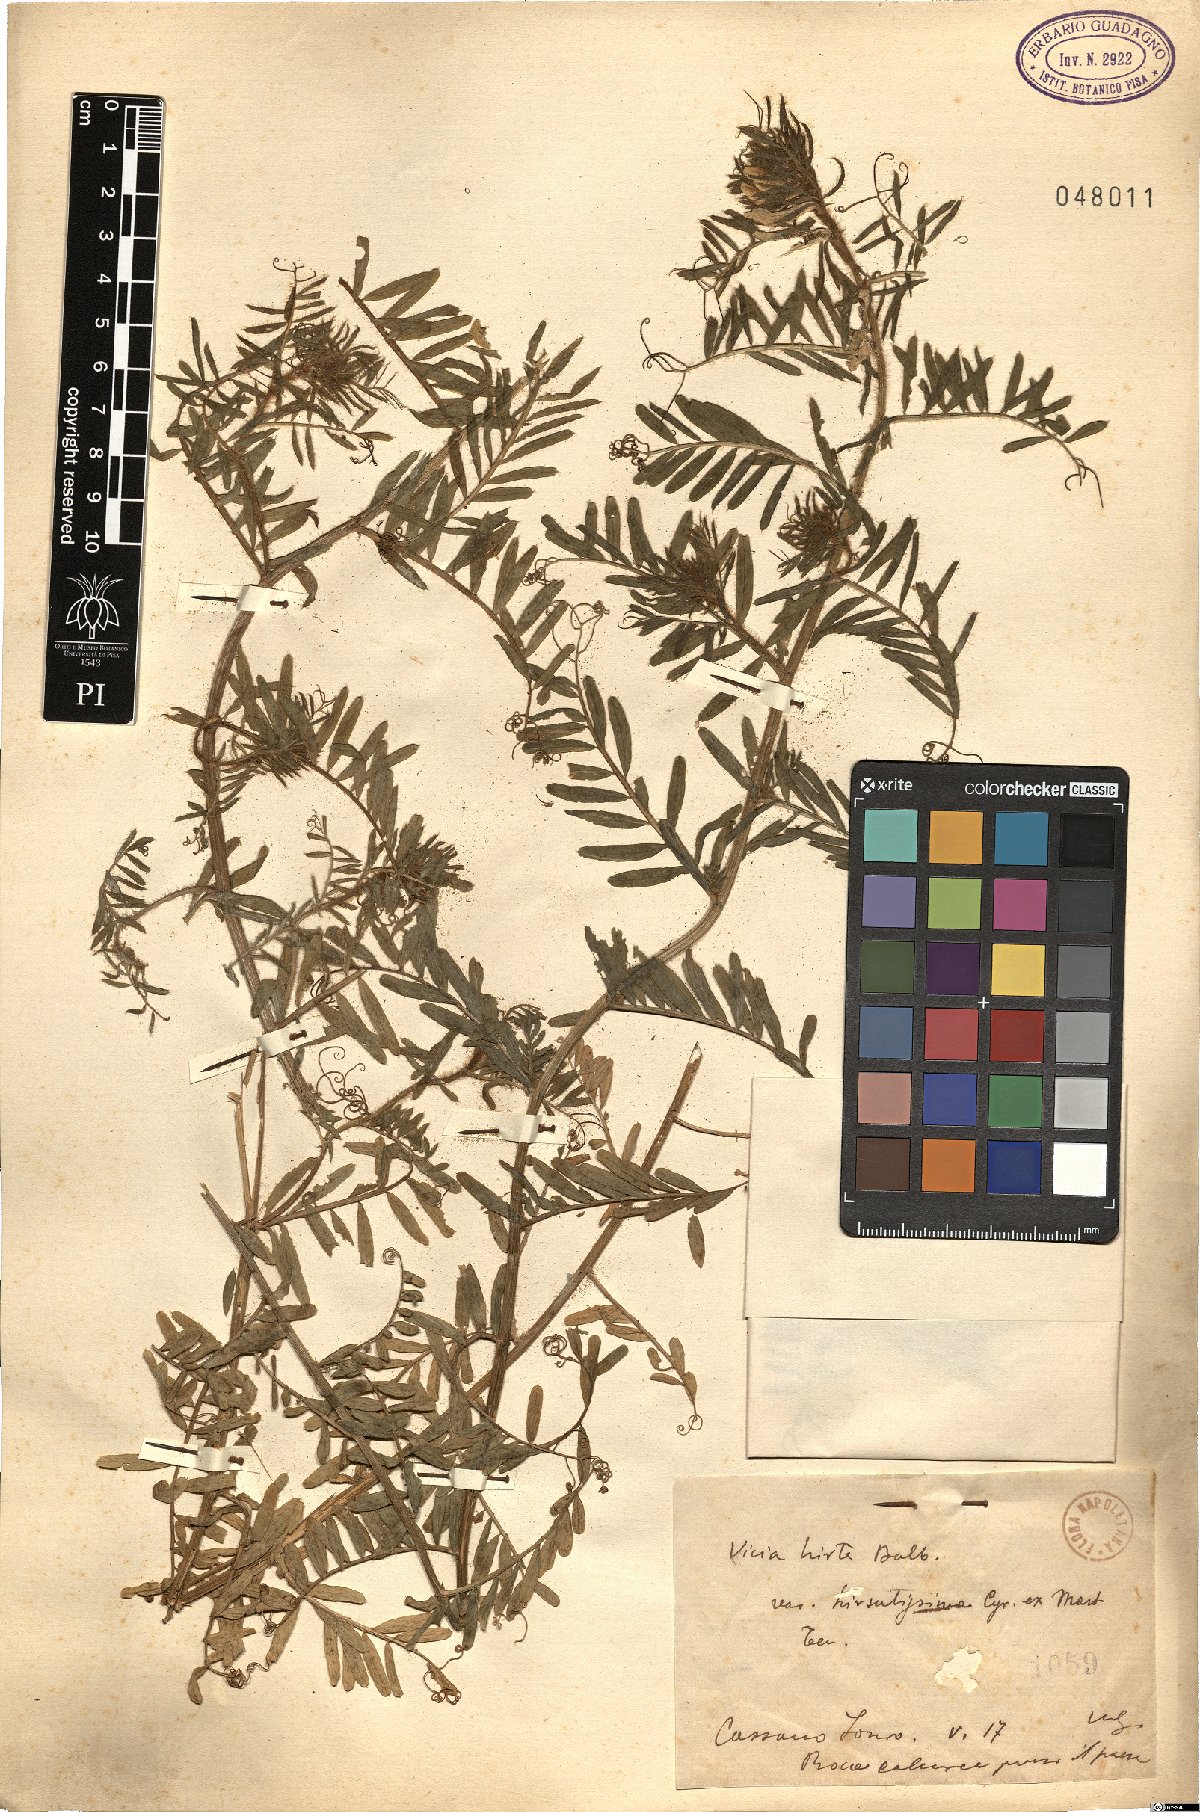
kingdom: Plantae
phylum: Tracheophyta
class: Magnoliopsida
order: Fabales
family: Fabaceae
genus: Vicia
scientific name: Vicia
